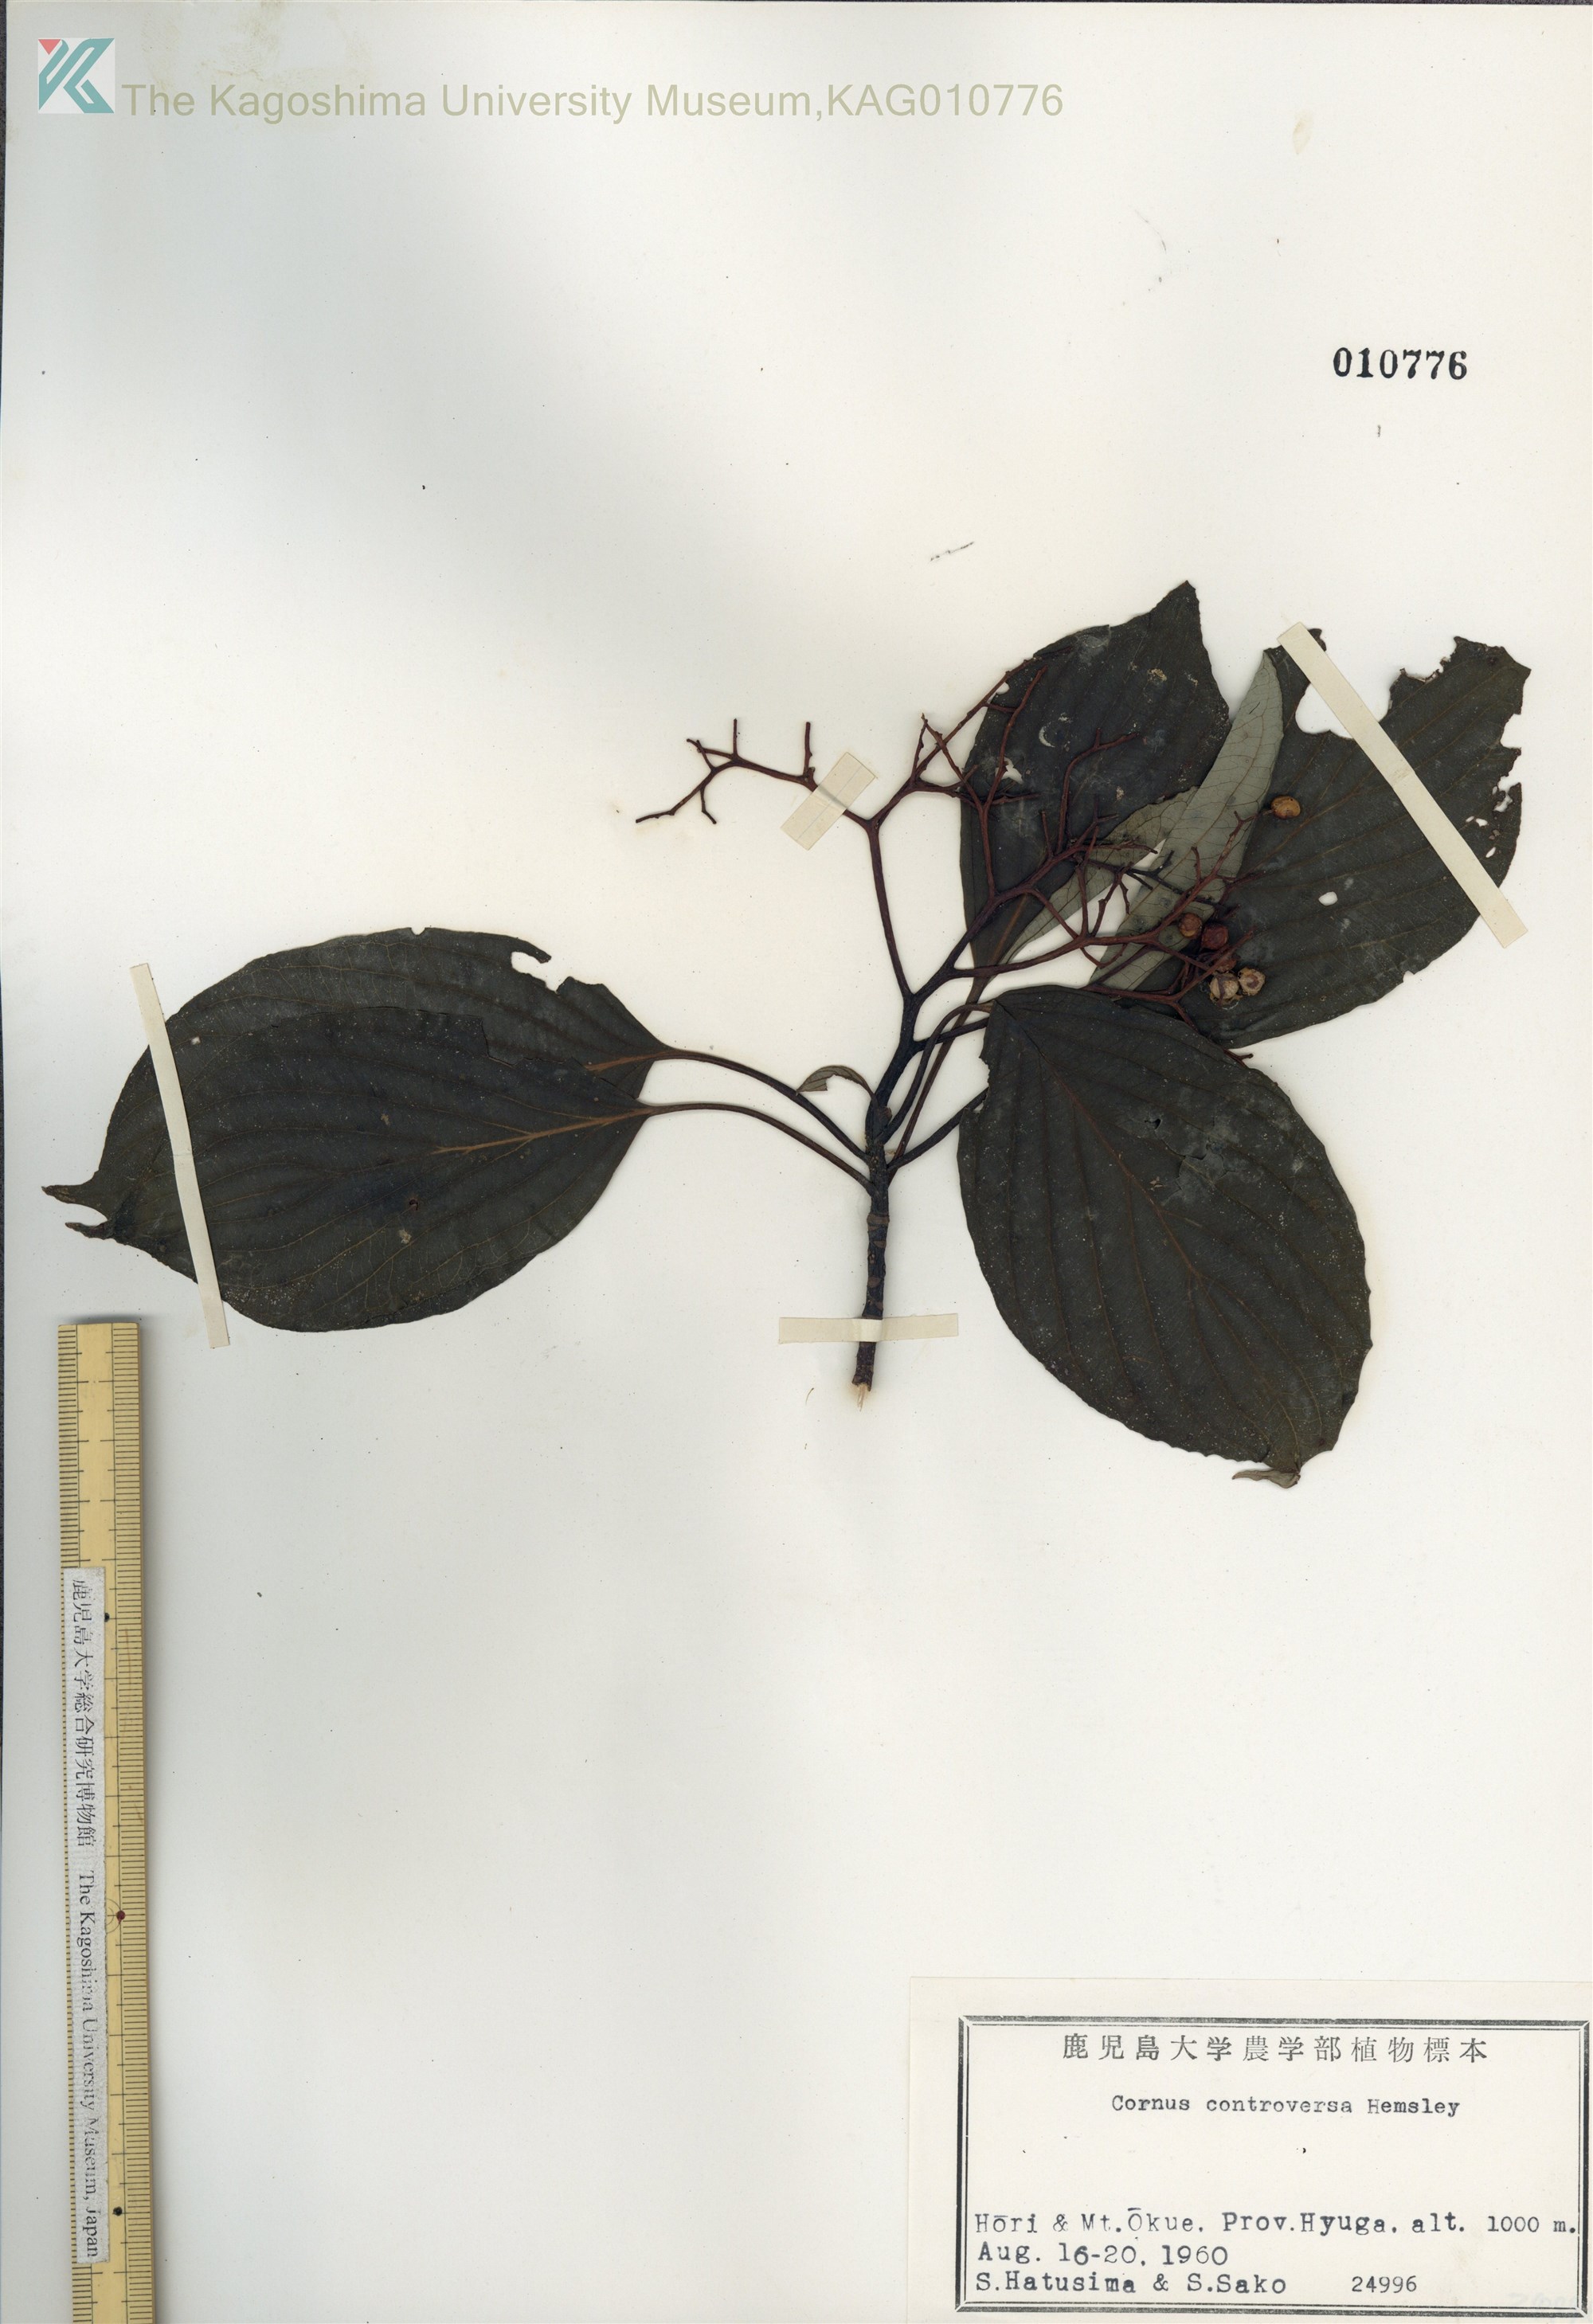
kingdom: Plantae
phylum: Tracheophyta
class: Magnoliopsida
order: Cornales
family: Cornaceae
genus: Cornus
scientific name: Cornus controversa
